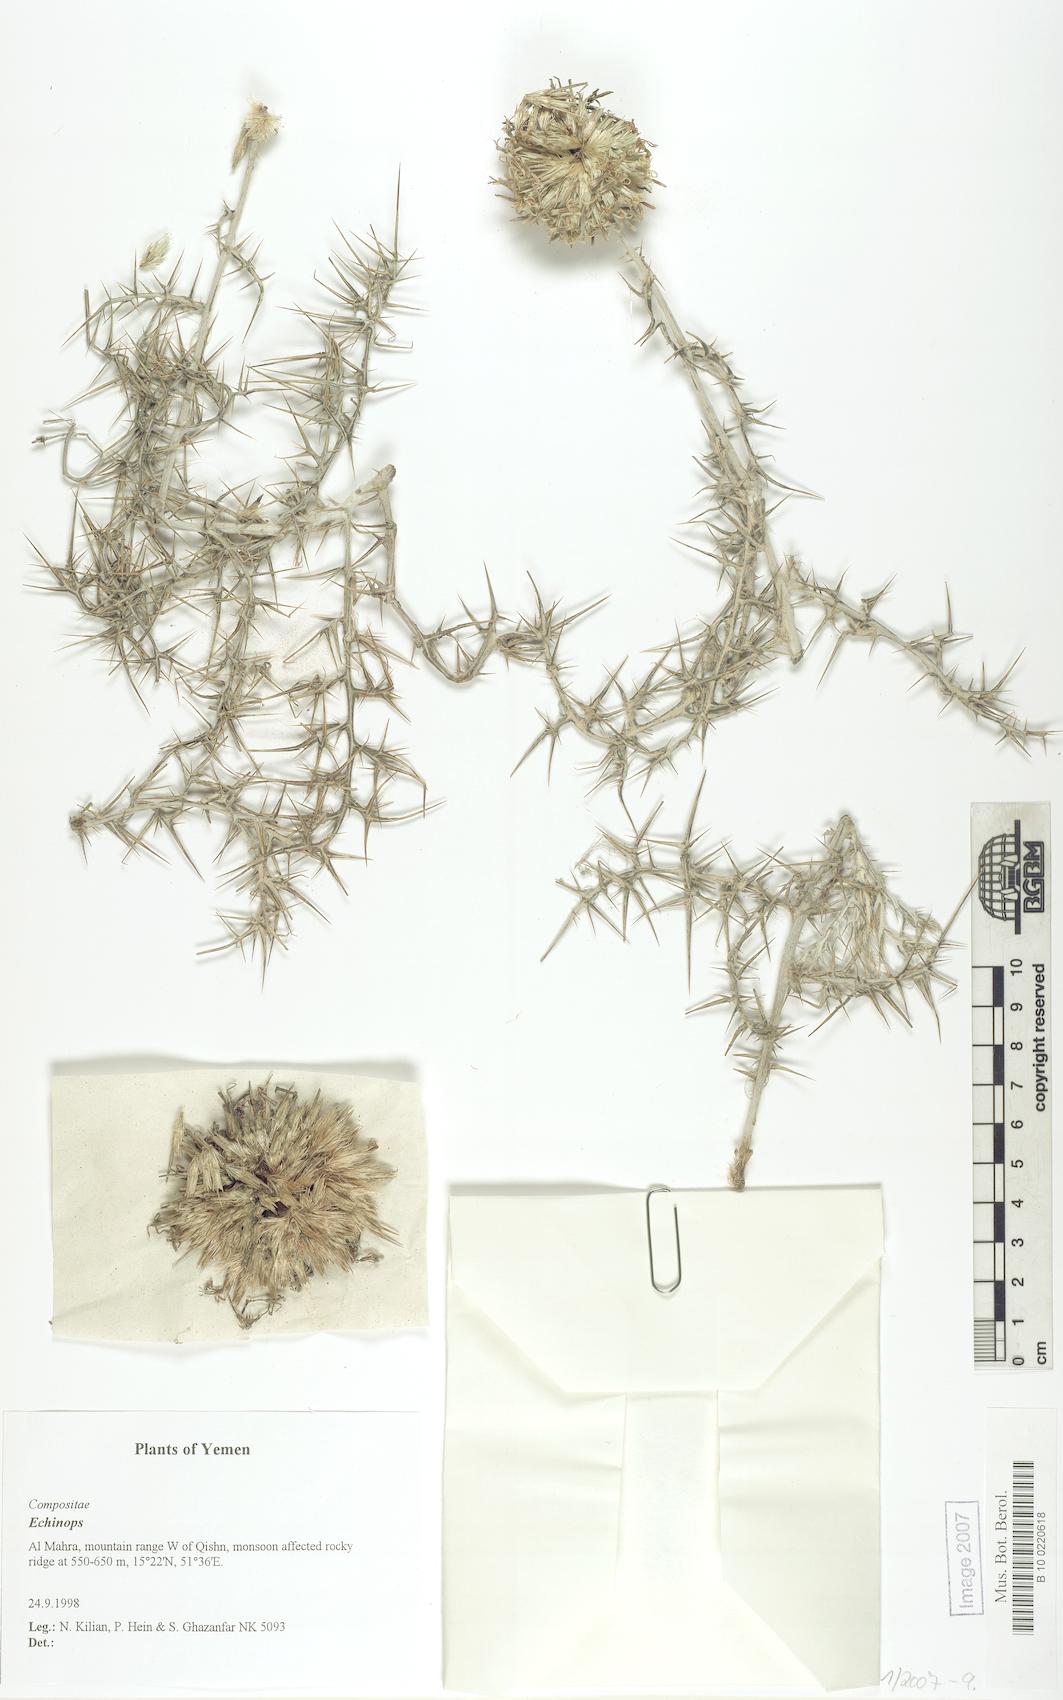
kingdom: Plantae
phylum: Tracheophyta
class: Magnoliopsida
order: Caryophyllales
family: Caryophyllaceae
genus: Stellaria
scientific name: Stellaria apetala
